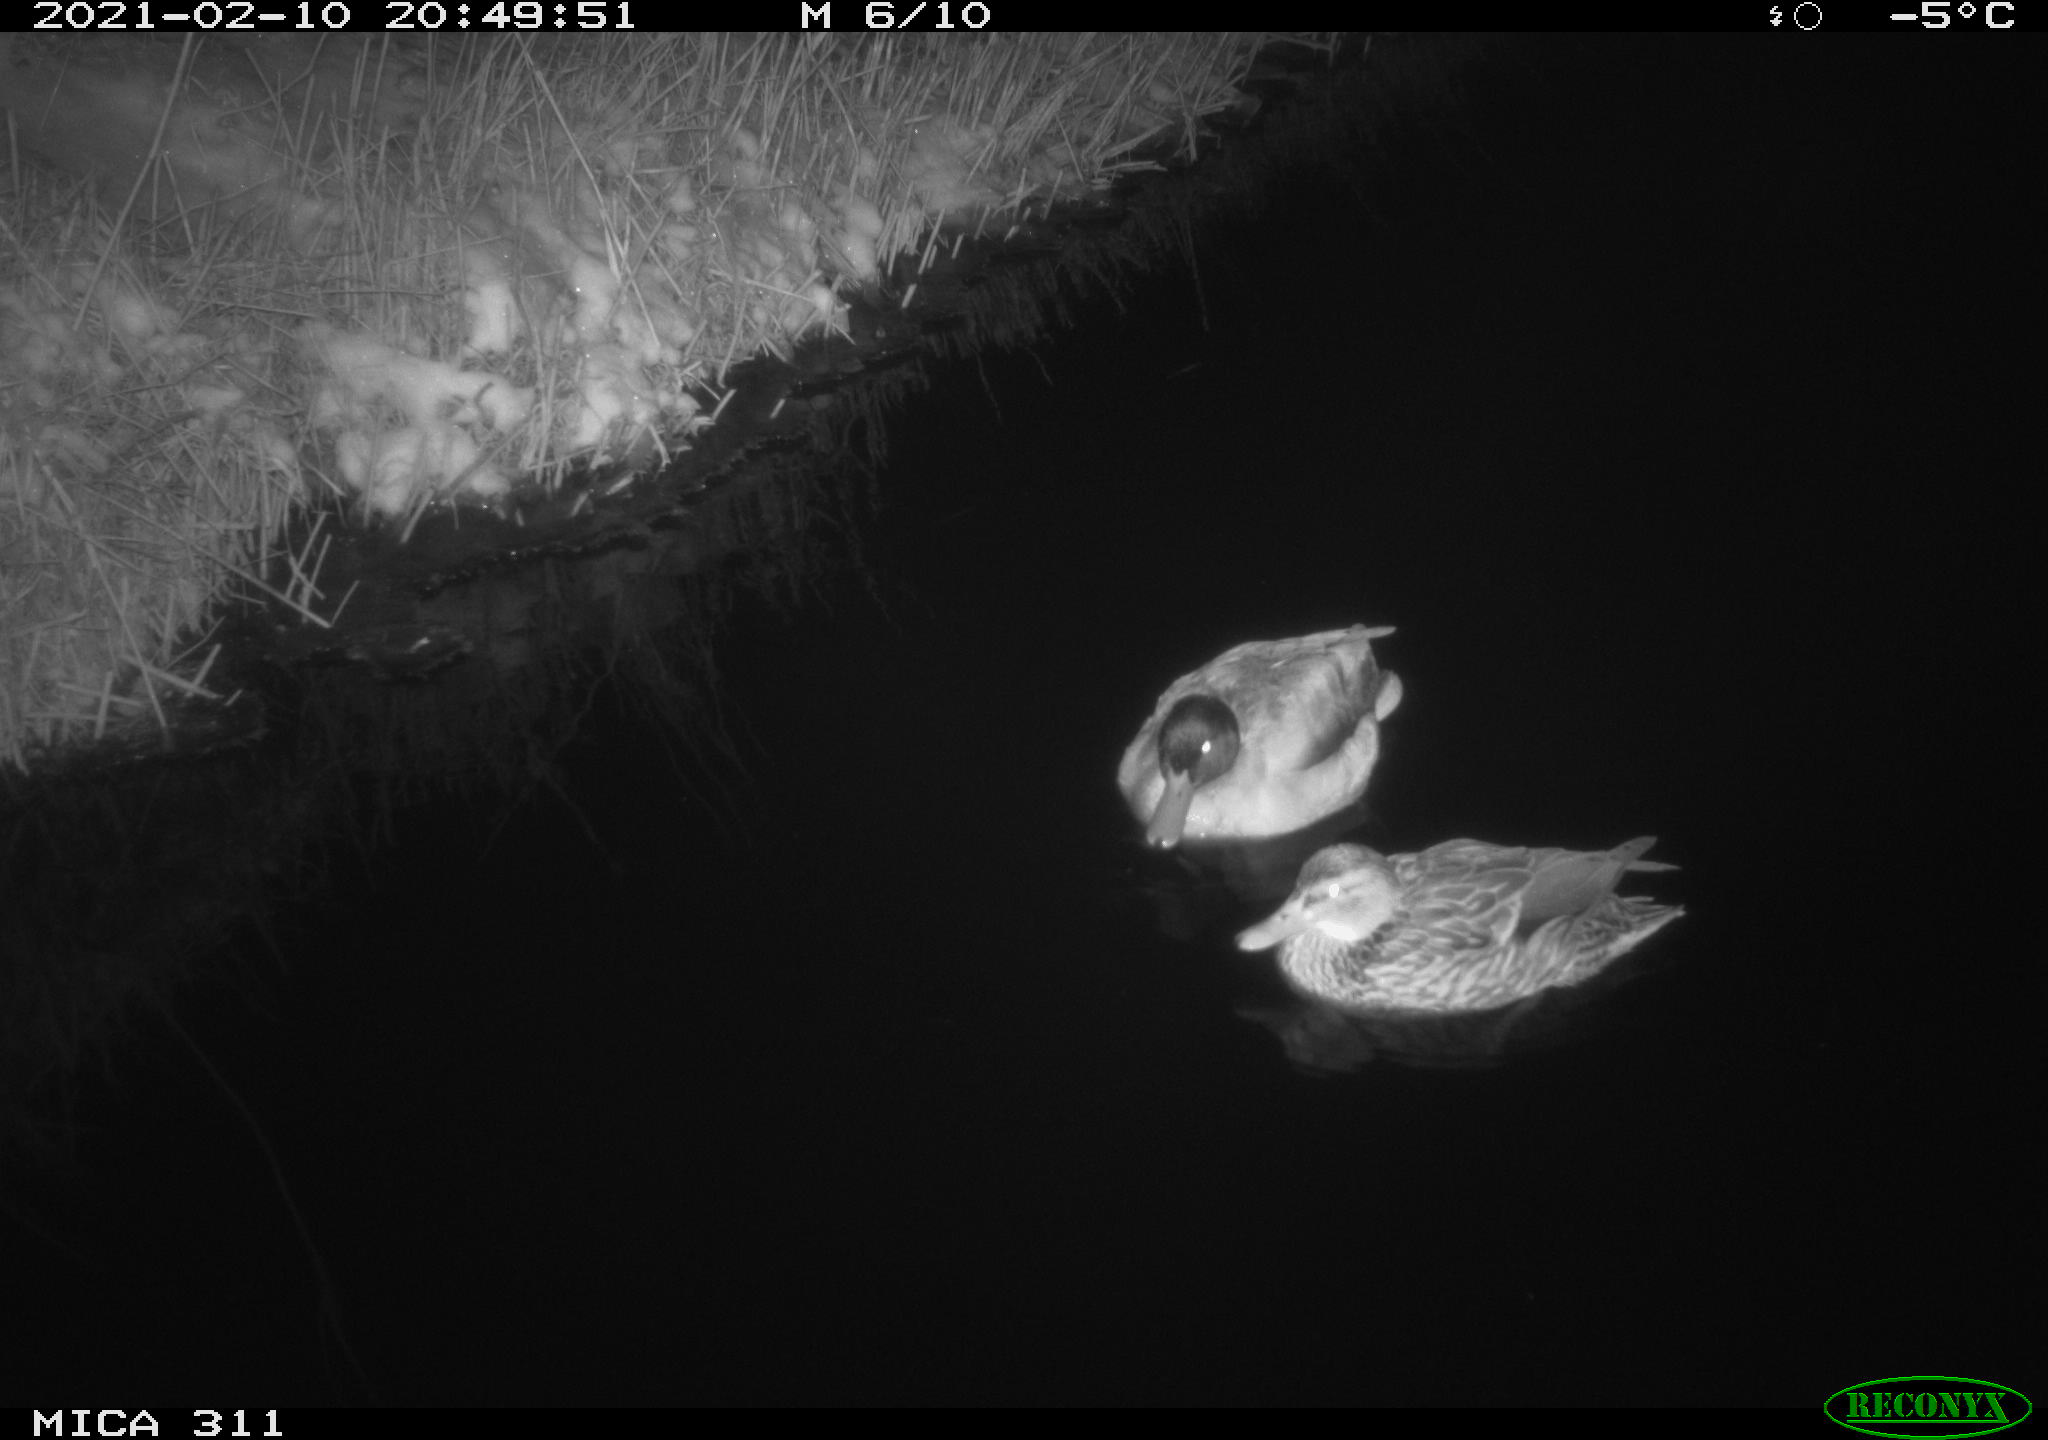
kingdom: Animalia
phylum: Chordata
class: Aves
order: Anseriformes
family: Anatidae
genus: Anas
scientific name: Anas
